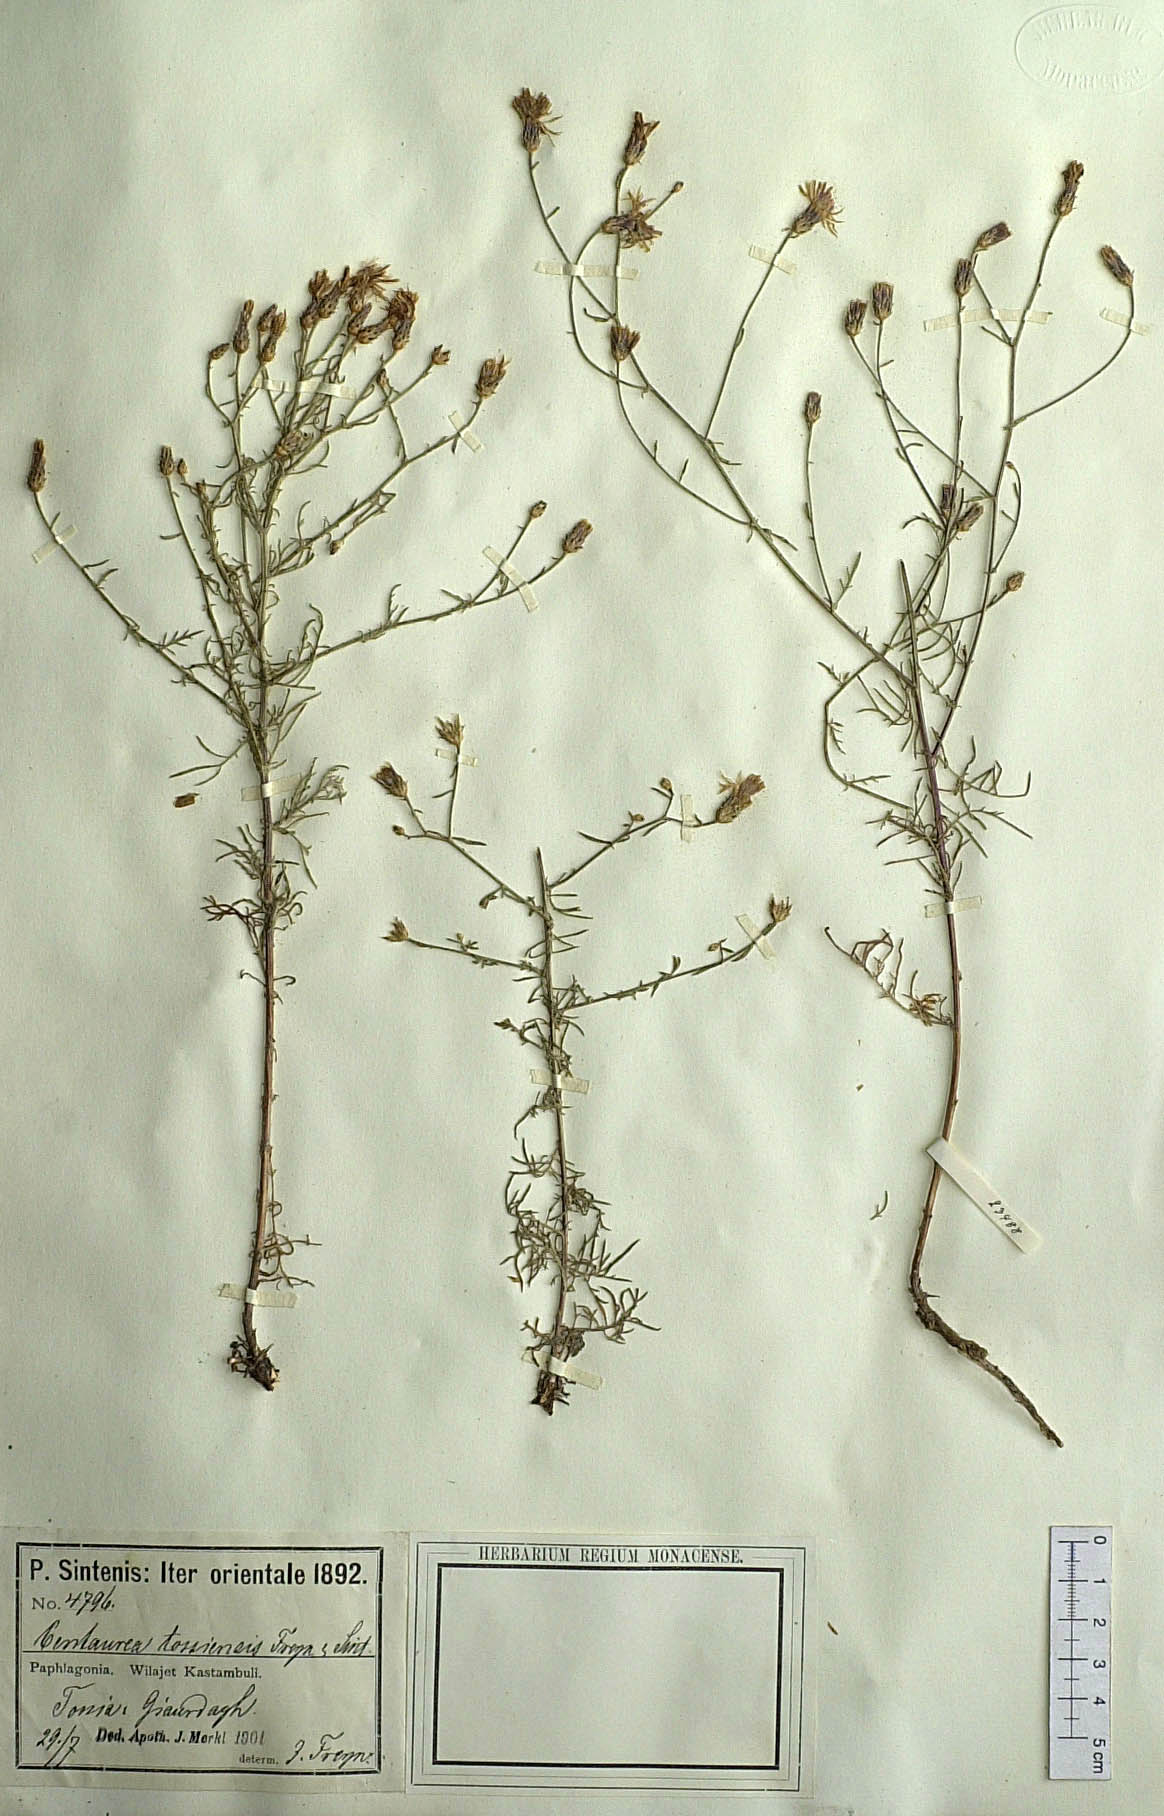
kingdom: Plantae
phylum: Tracheophyta
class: Magnoliopsida
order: Asterales
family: Asteraceae
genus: Centaurea
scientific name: Centaurea tossiensis
